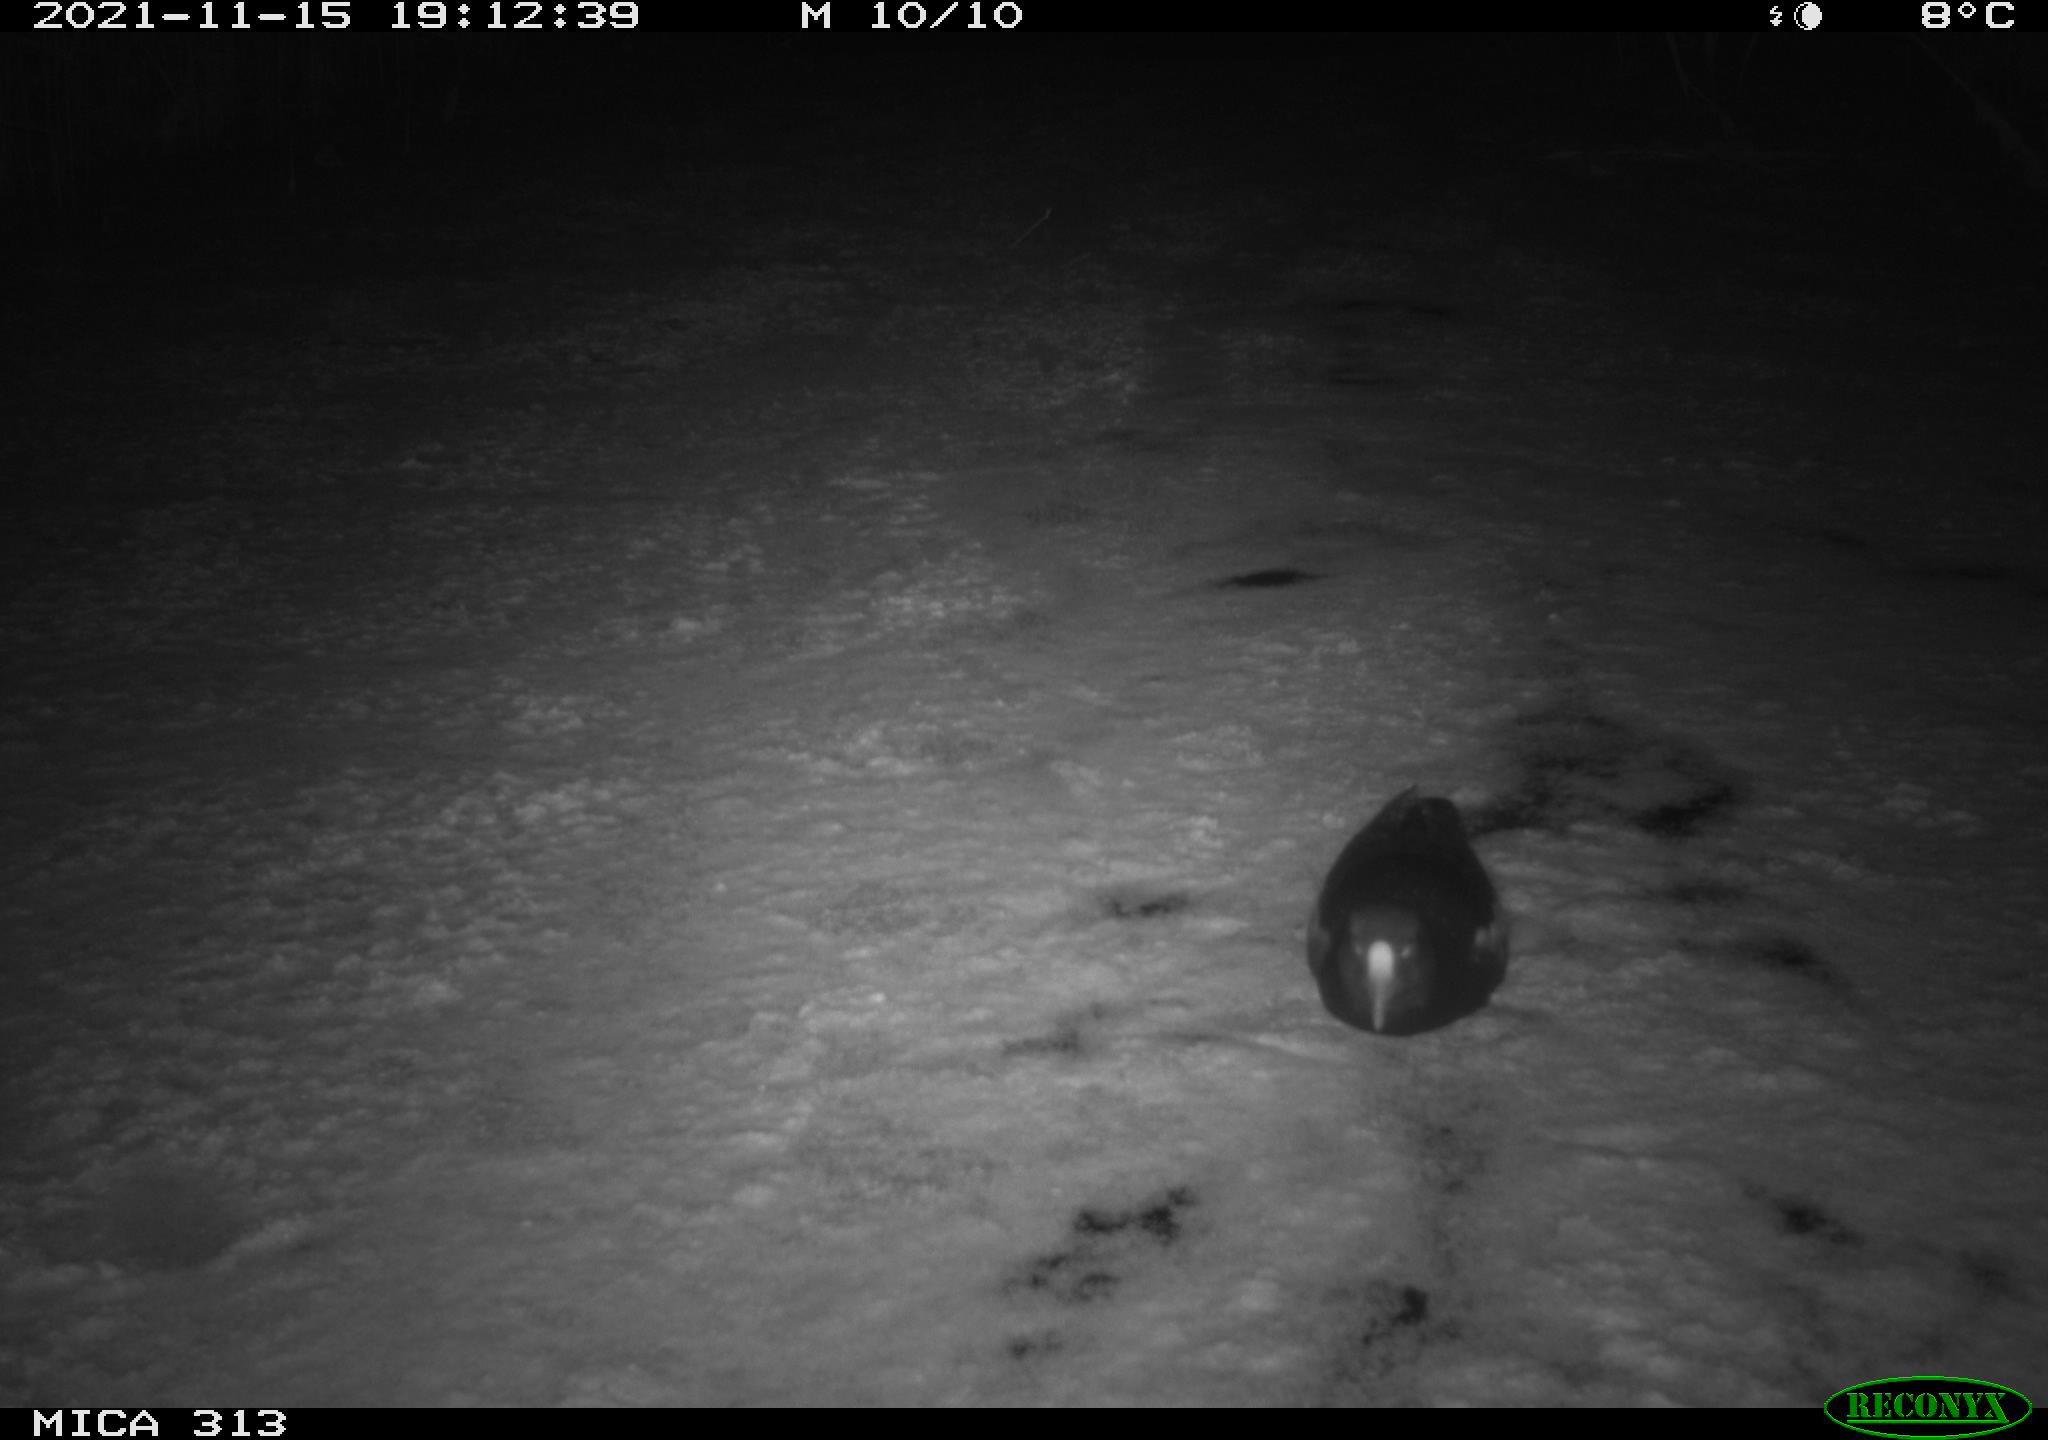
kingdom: Animalia
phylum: Chordata
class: Aves
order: Gruiformes
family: Rallidae
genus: Gallinula
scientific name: Gallinula chloropus
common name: Common moorhen
